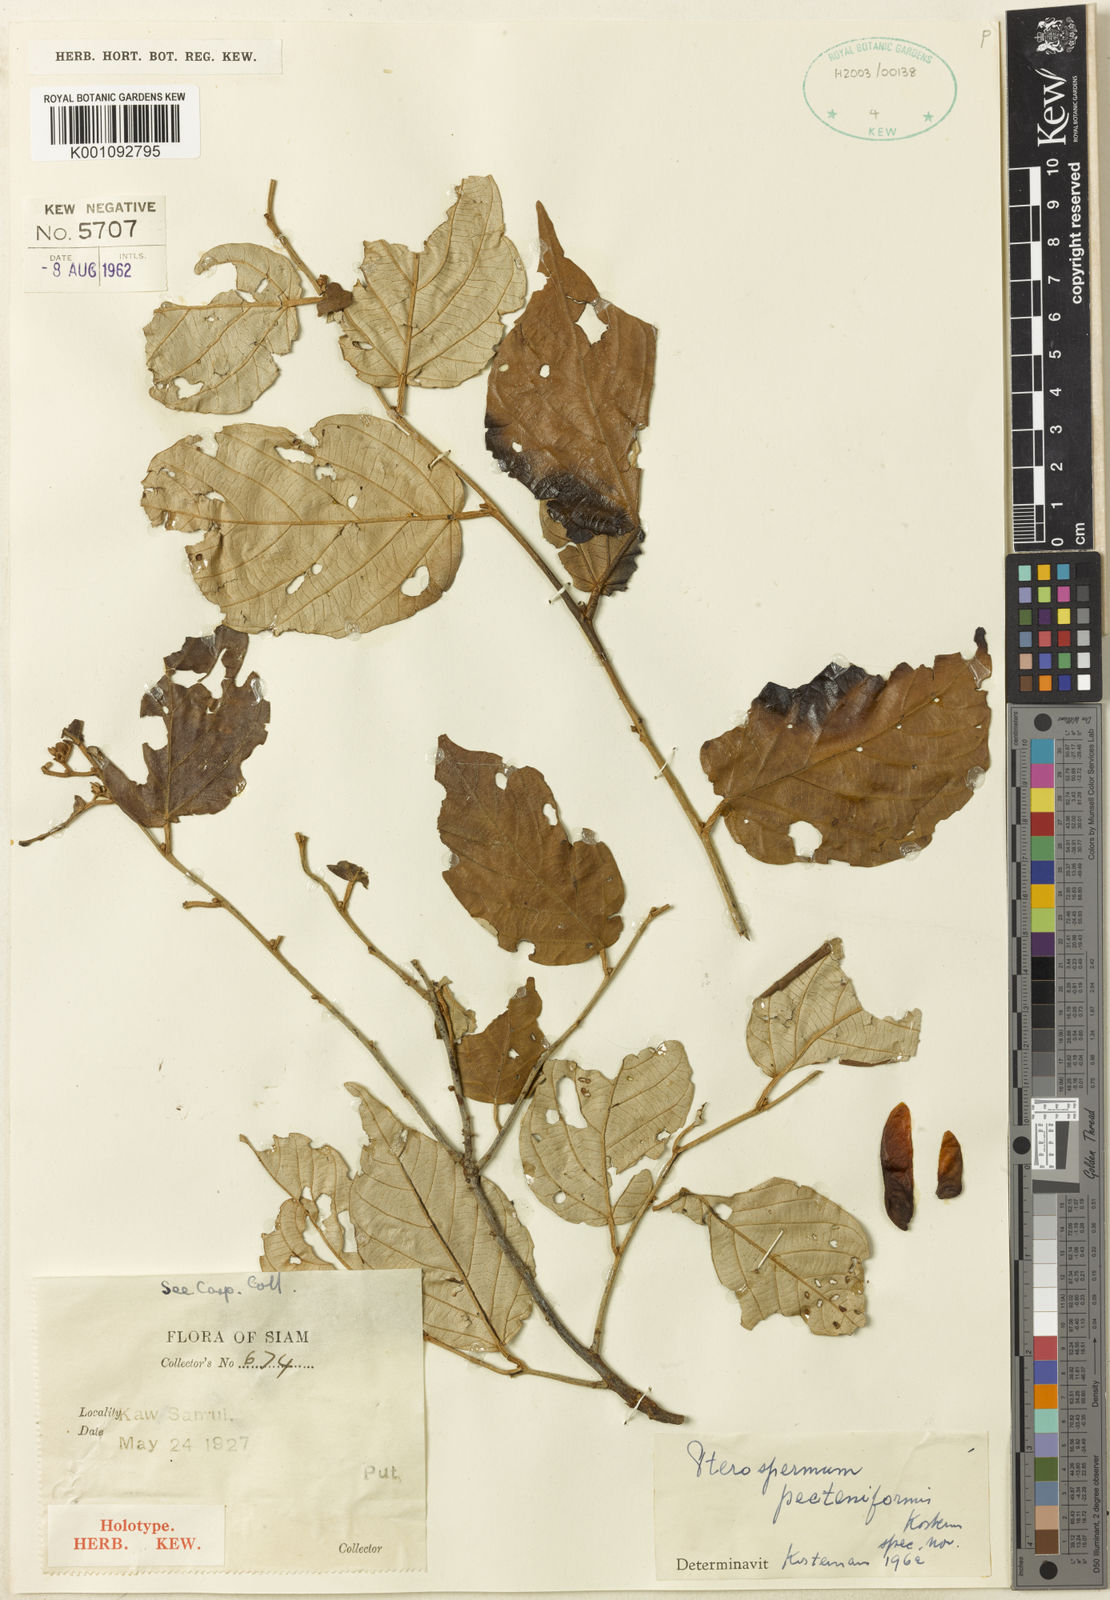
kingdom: Plantae
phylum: Tracheophyta
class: Magnoliopsida
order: Malvales
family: Malvaceae
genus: Pterospermum
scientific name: Pterospermum pecteniforme
